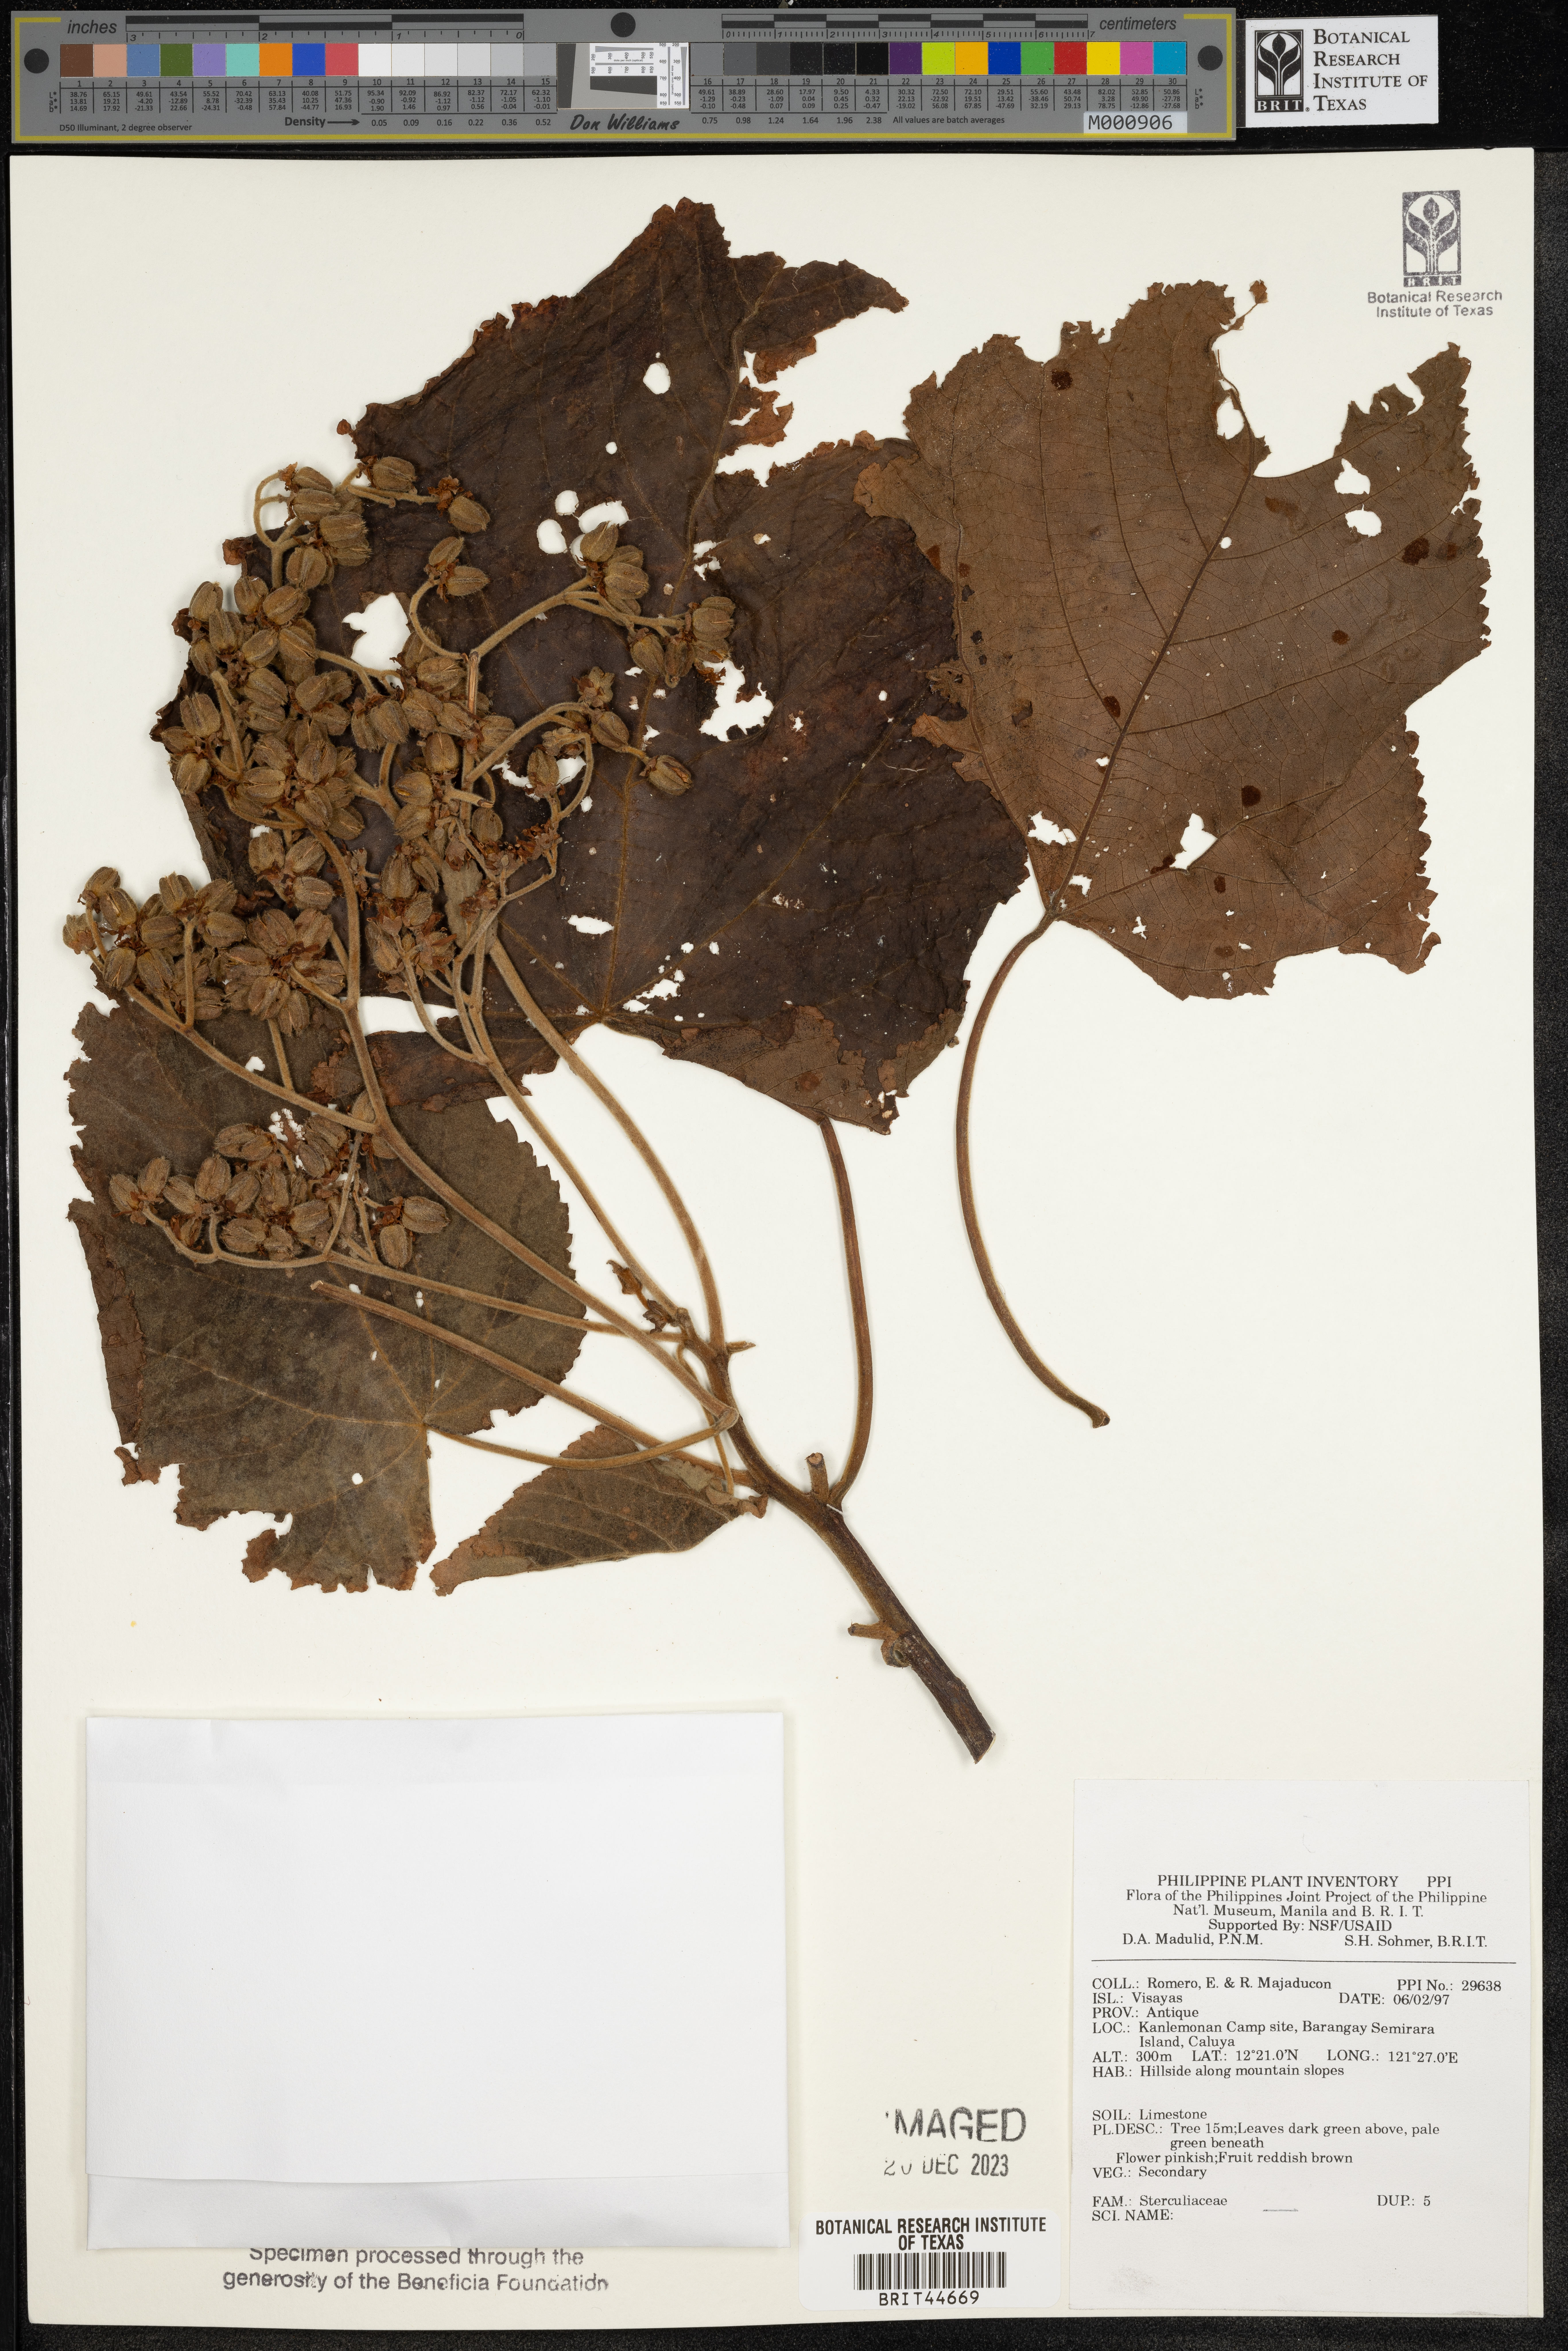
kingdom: Plantae
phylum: Tracheophyta
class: Magnoliopsida
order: Malvales
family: Sterculiaceae
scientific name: Sterculiaceae
